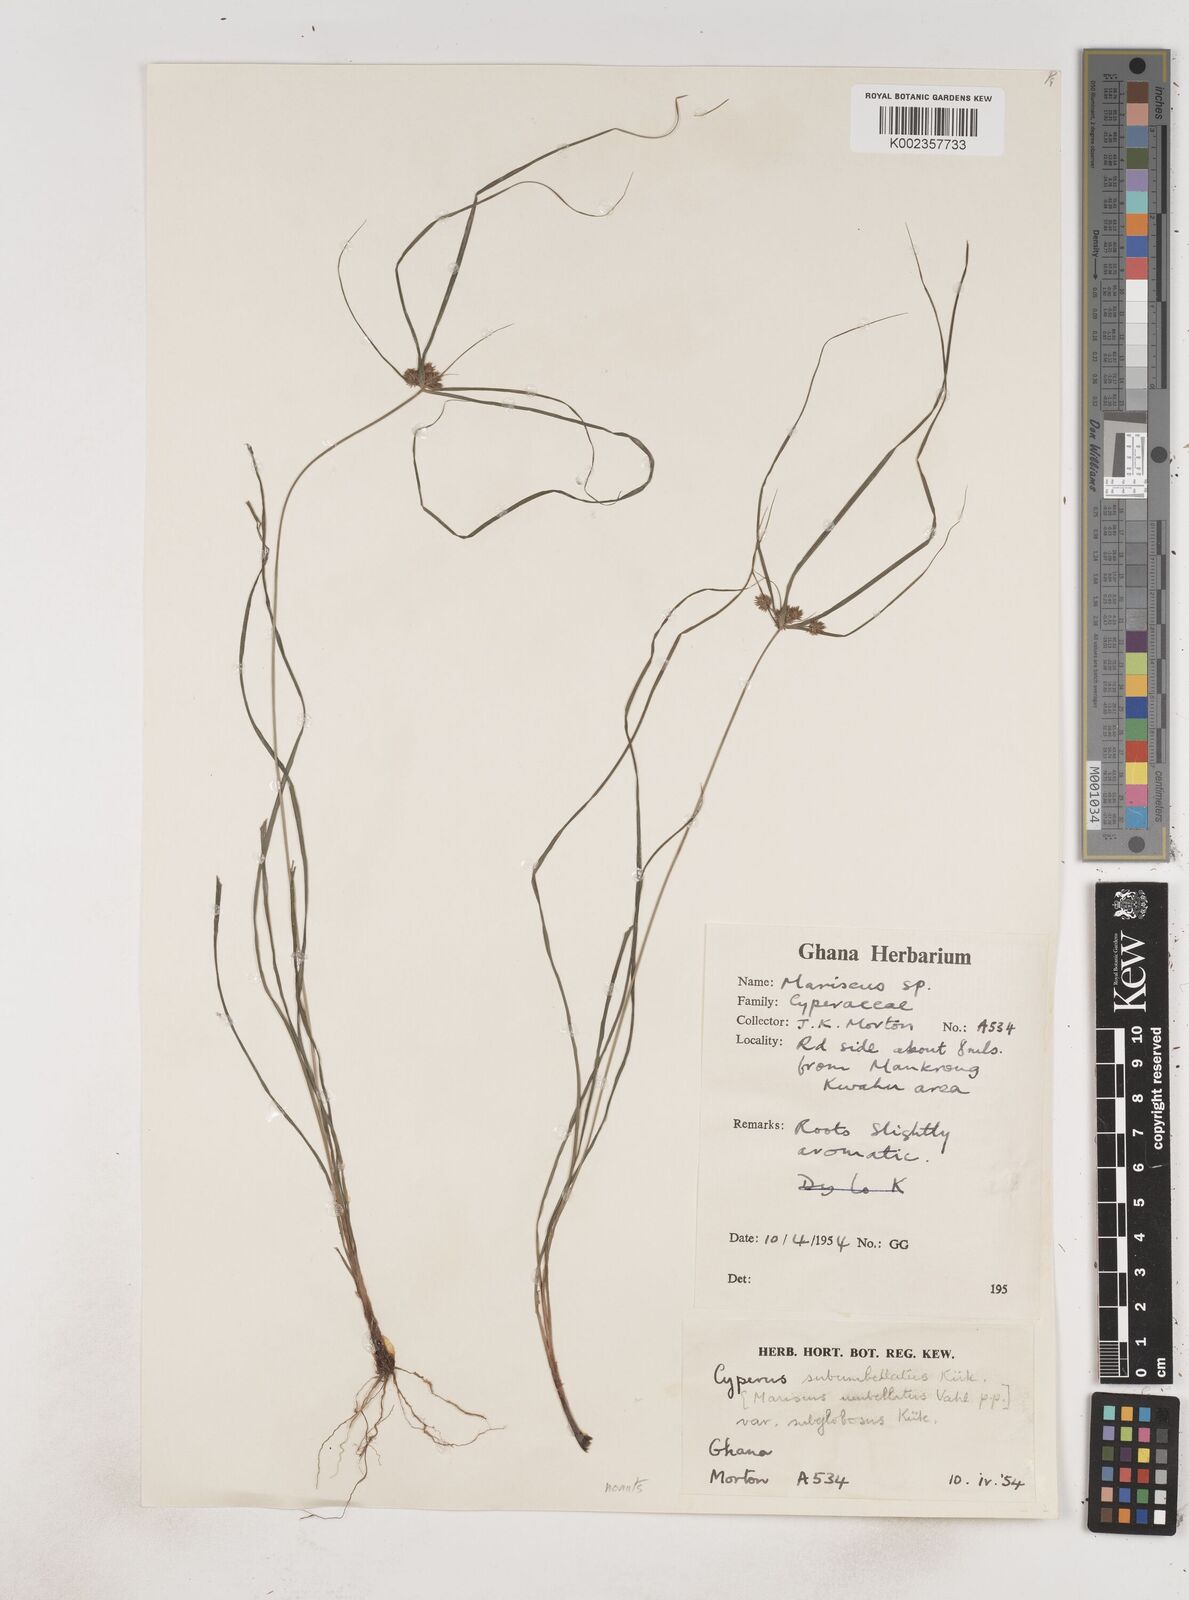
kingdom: Plantae
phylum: Tracheophyta
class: Liliopsida
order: Poales
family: Cyperaceae
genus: Cyperus
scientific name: Cyperus sublimis
